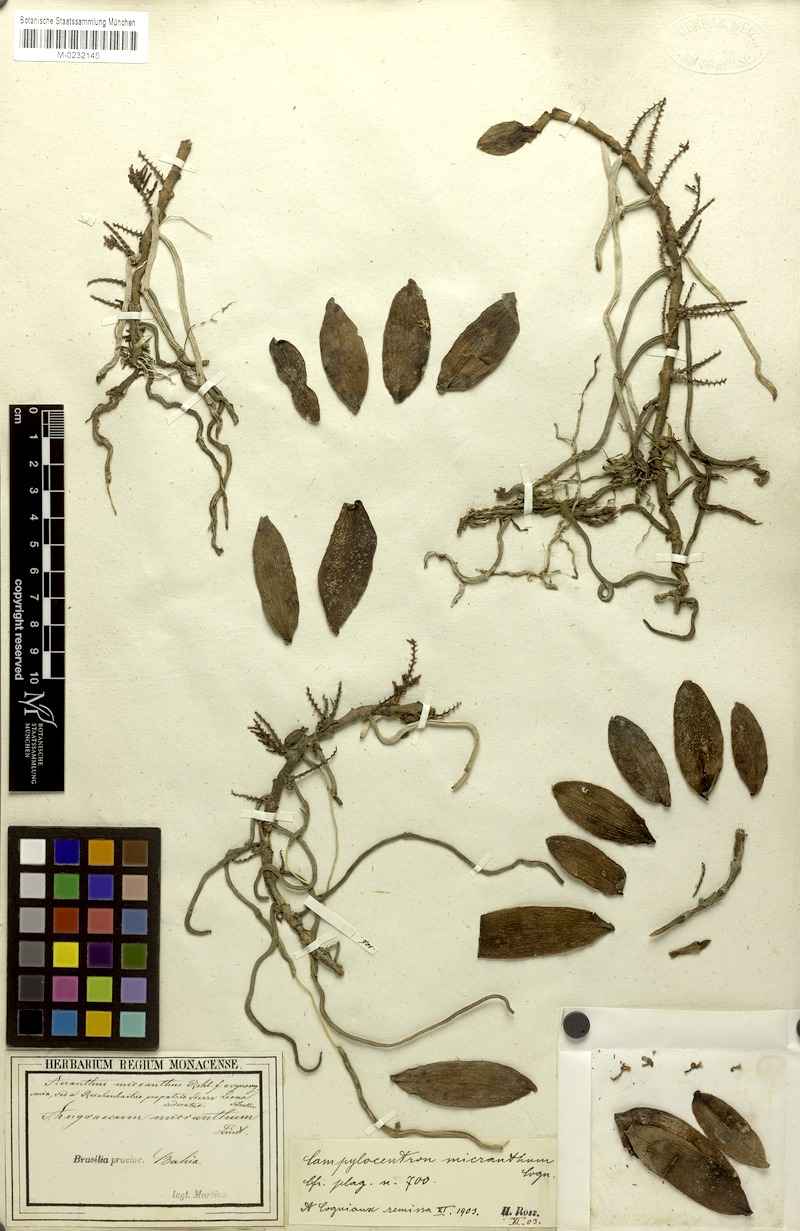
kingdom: Plantae
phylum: Tracheophyta
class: Liliopsida
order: Asparagales
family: Orchidaceae
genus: Campylocentrum
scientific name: Campylocentrum micranthum
